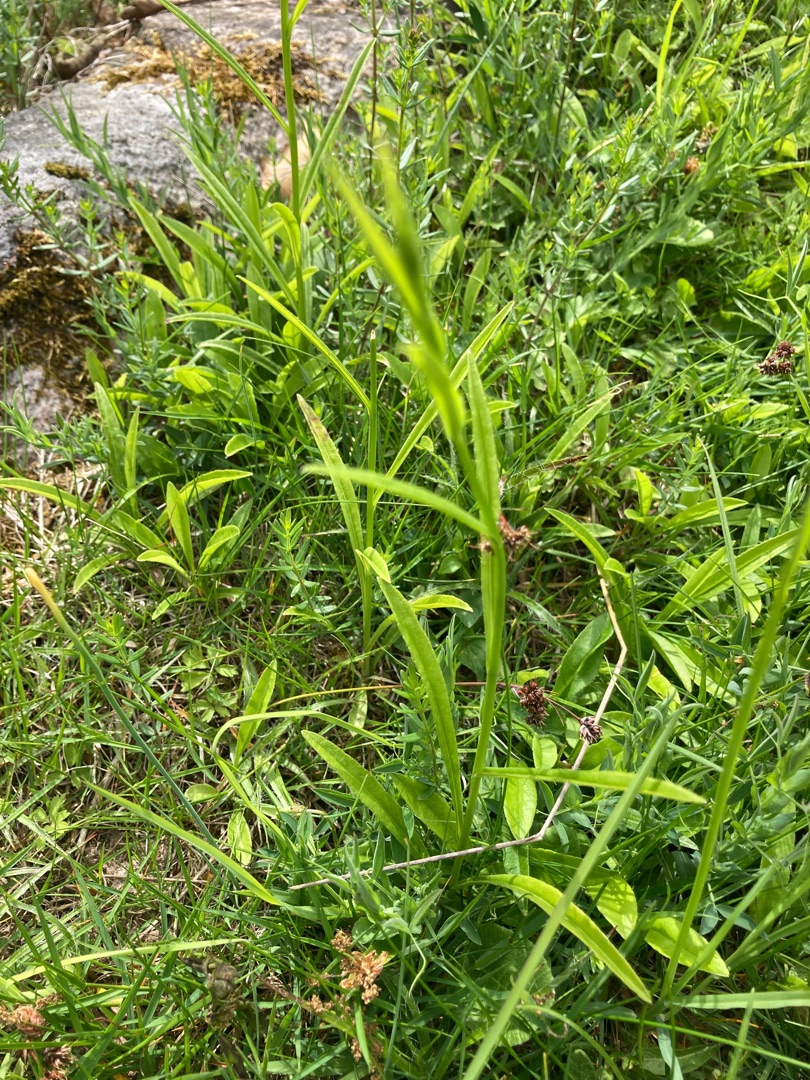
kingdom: Plantae
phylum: Tracheophyta
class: Magnoliopsida
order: Asterales
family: Campanulaceae
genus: Campanula
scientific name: Campanula persicifolia
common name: Smalbladet klokke
